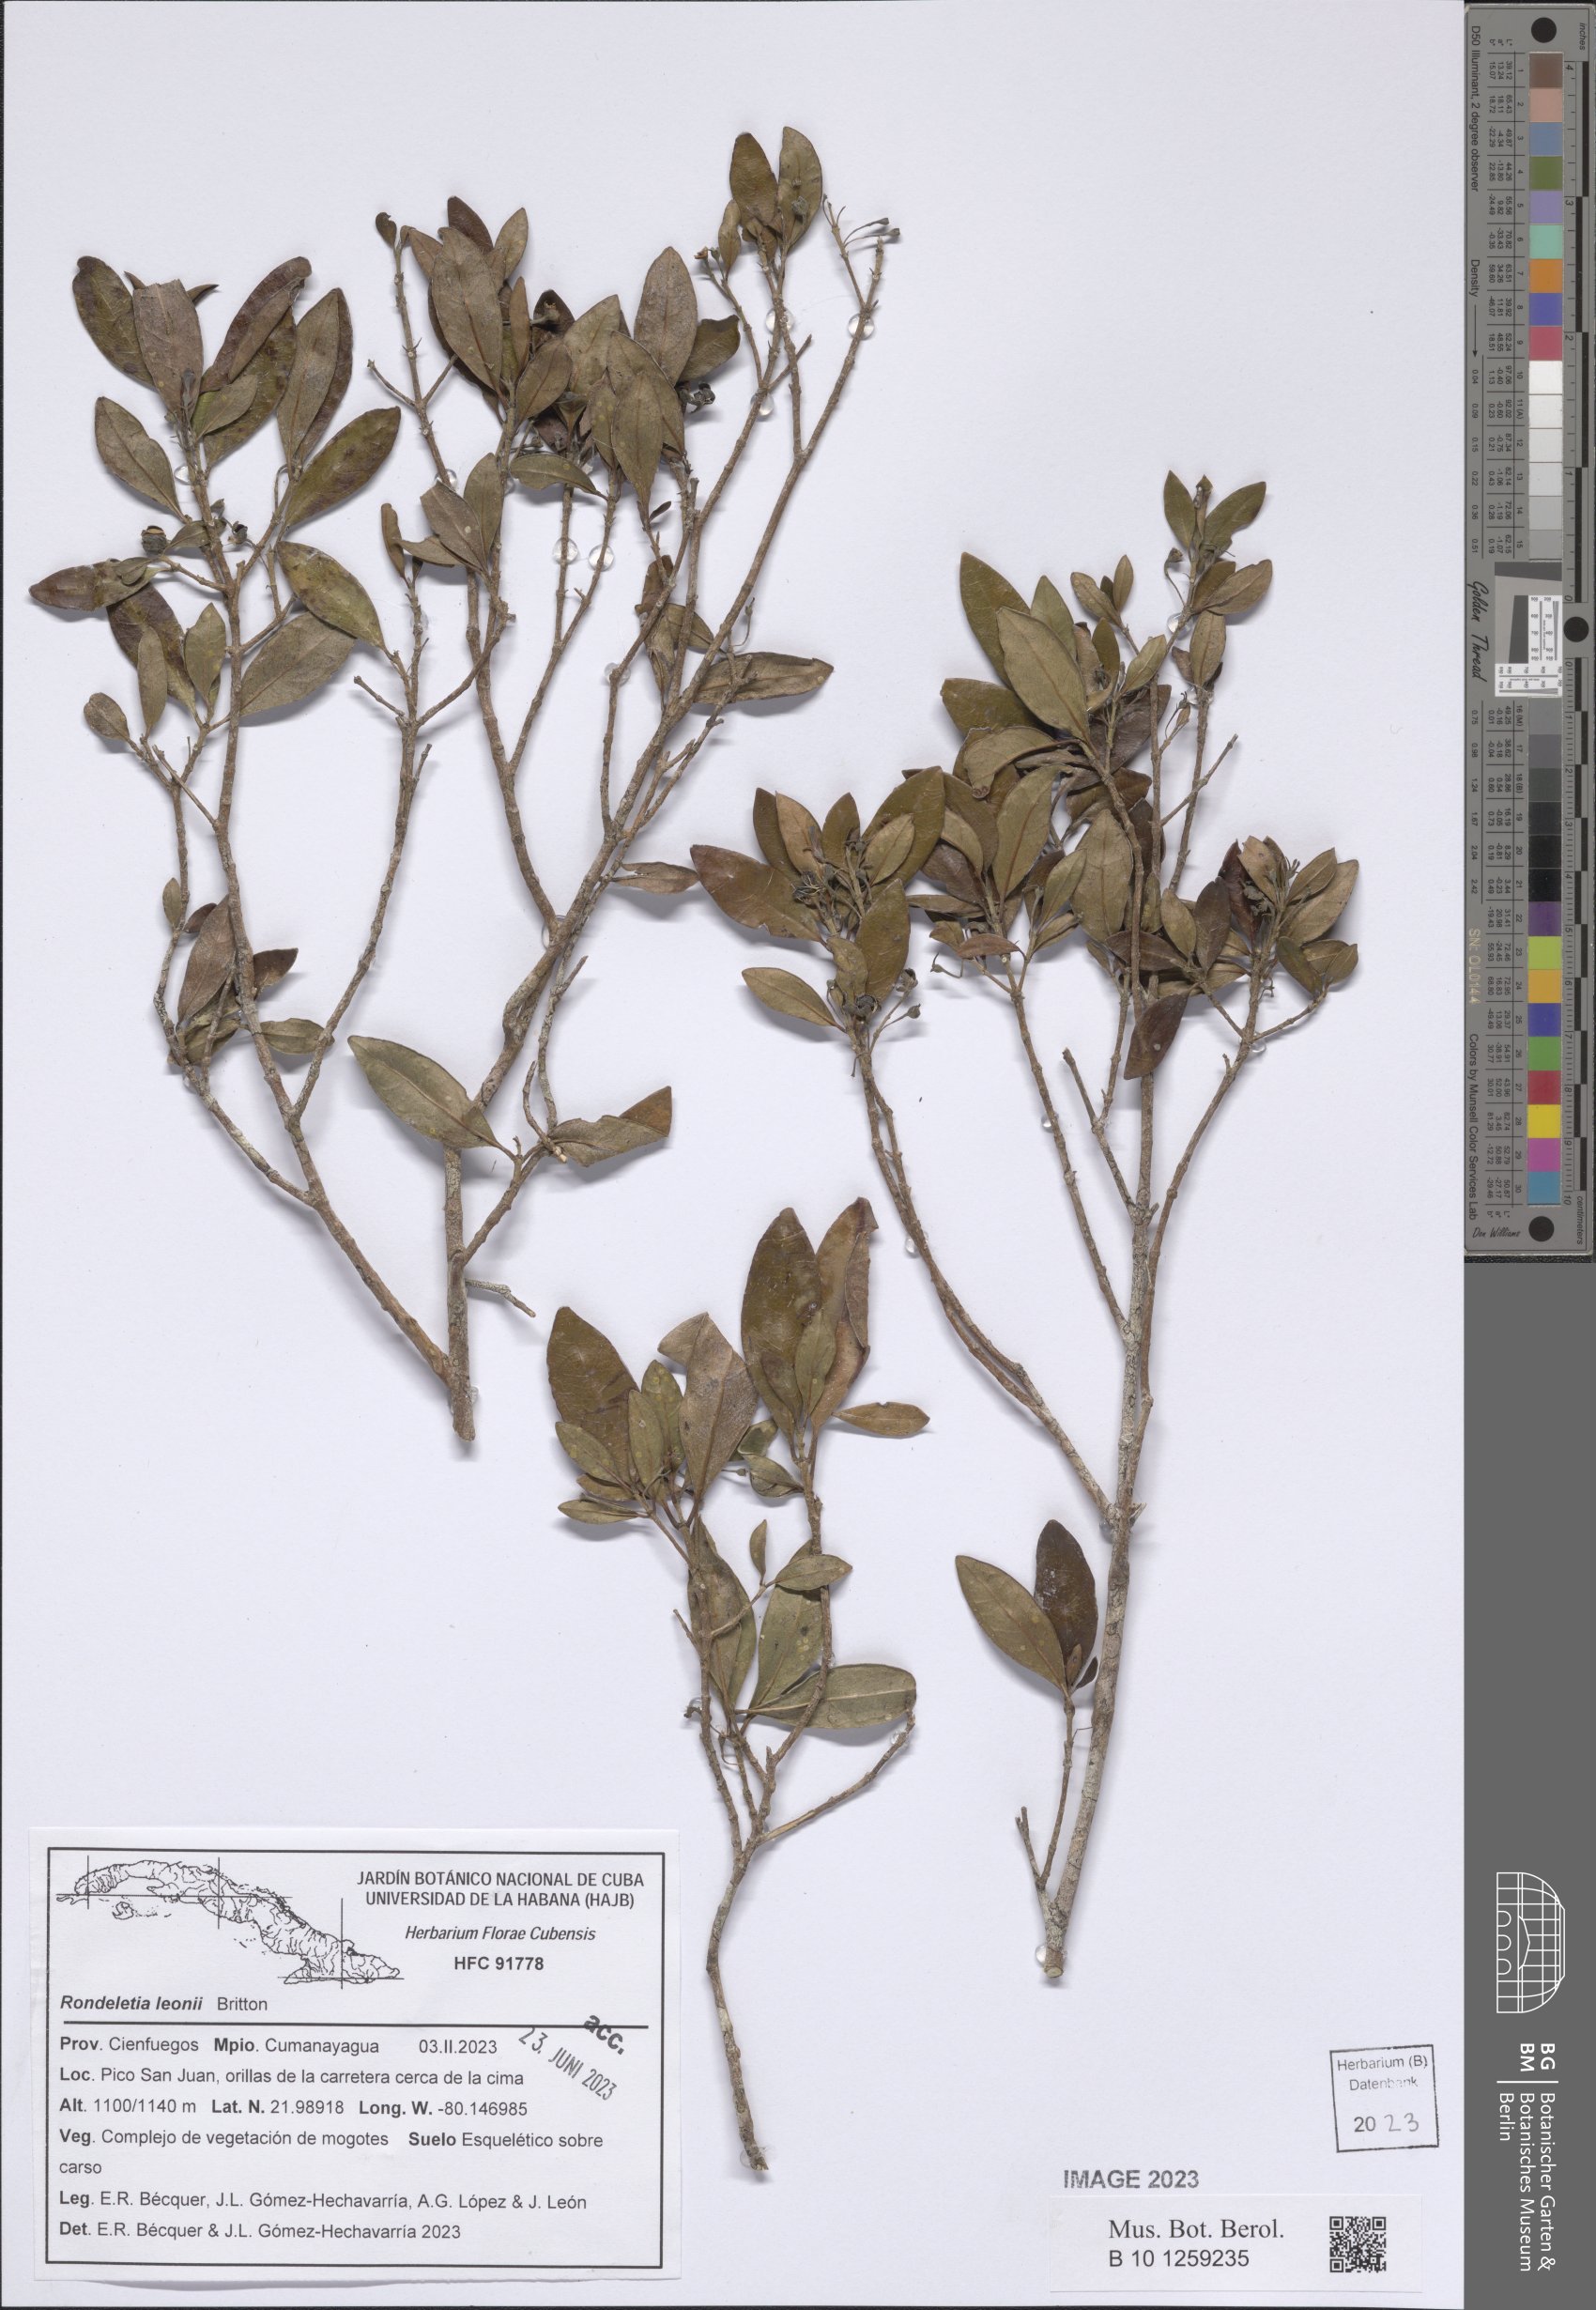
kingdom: Plantae
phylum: Tracheophyta
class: Magnoliopsida
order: Gentianales
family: Rubiaceae
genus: Rondeletia
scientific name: Rondeletia leonii
